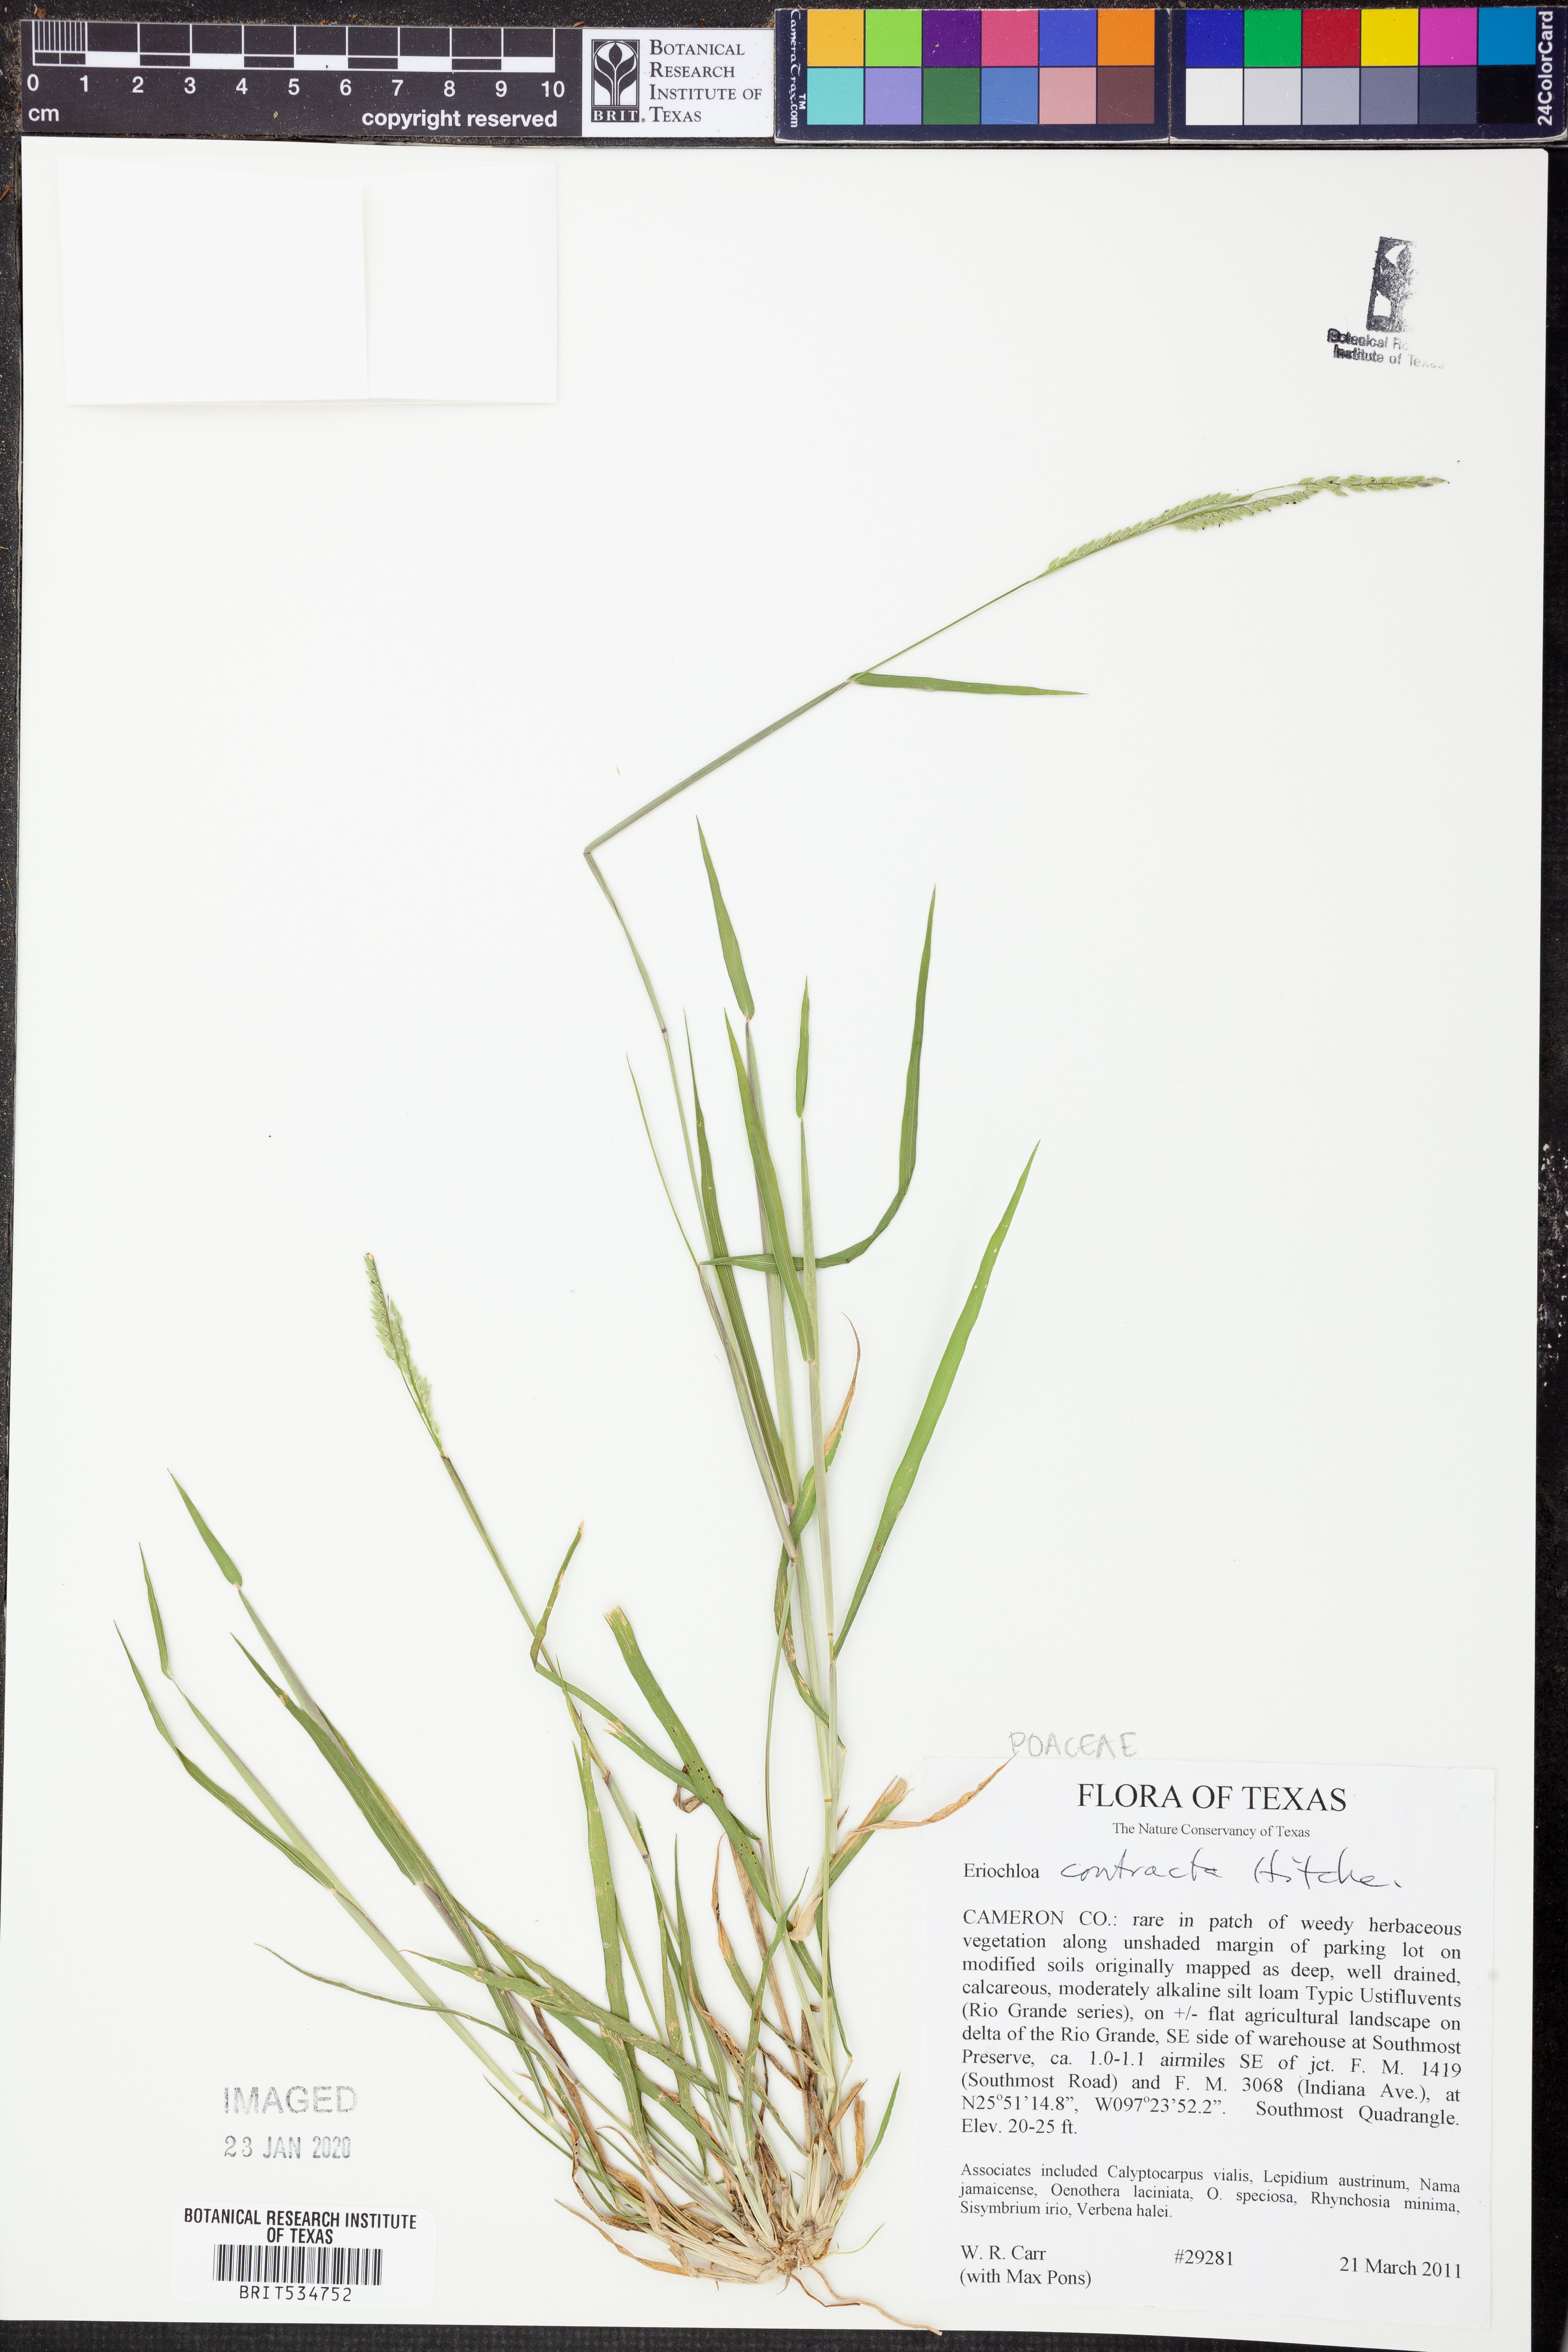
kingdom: Plantae
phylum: Tracheophyta
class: Liliopsida
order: Poales
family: Poaceae
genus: Eriochloa
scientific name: Eriochloa contracta
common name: Prairie cup grass
